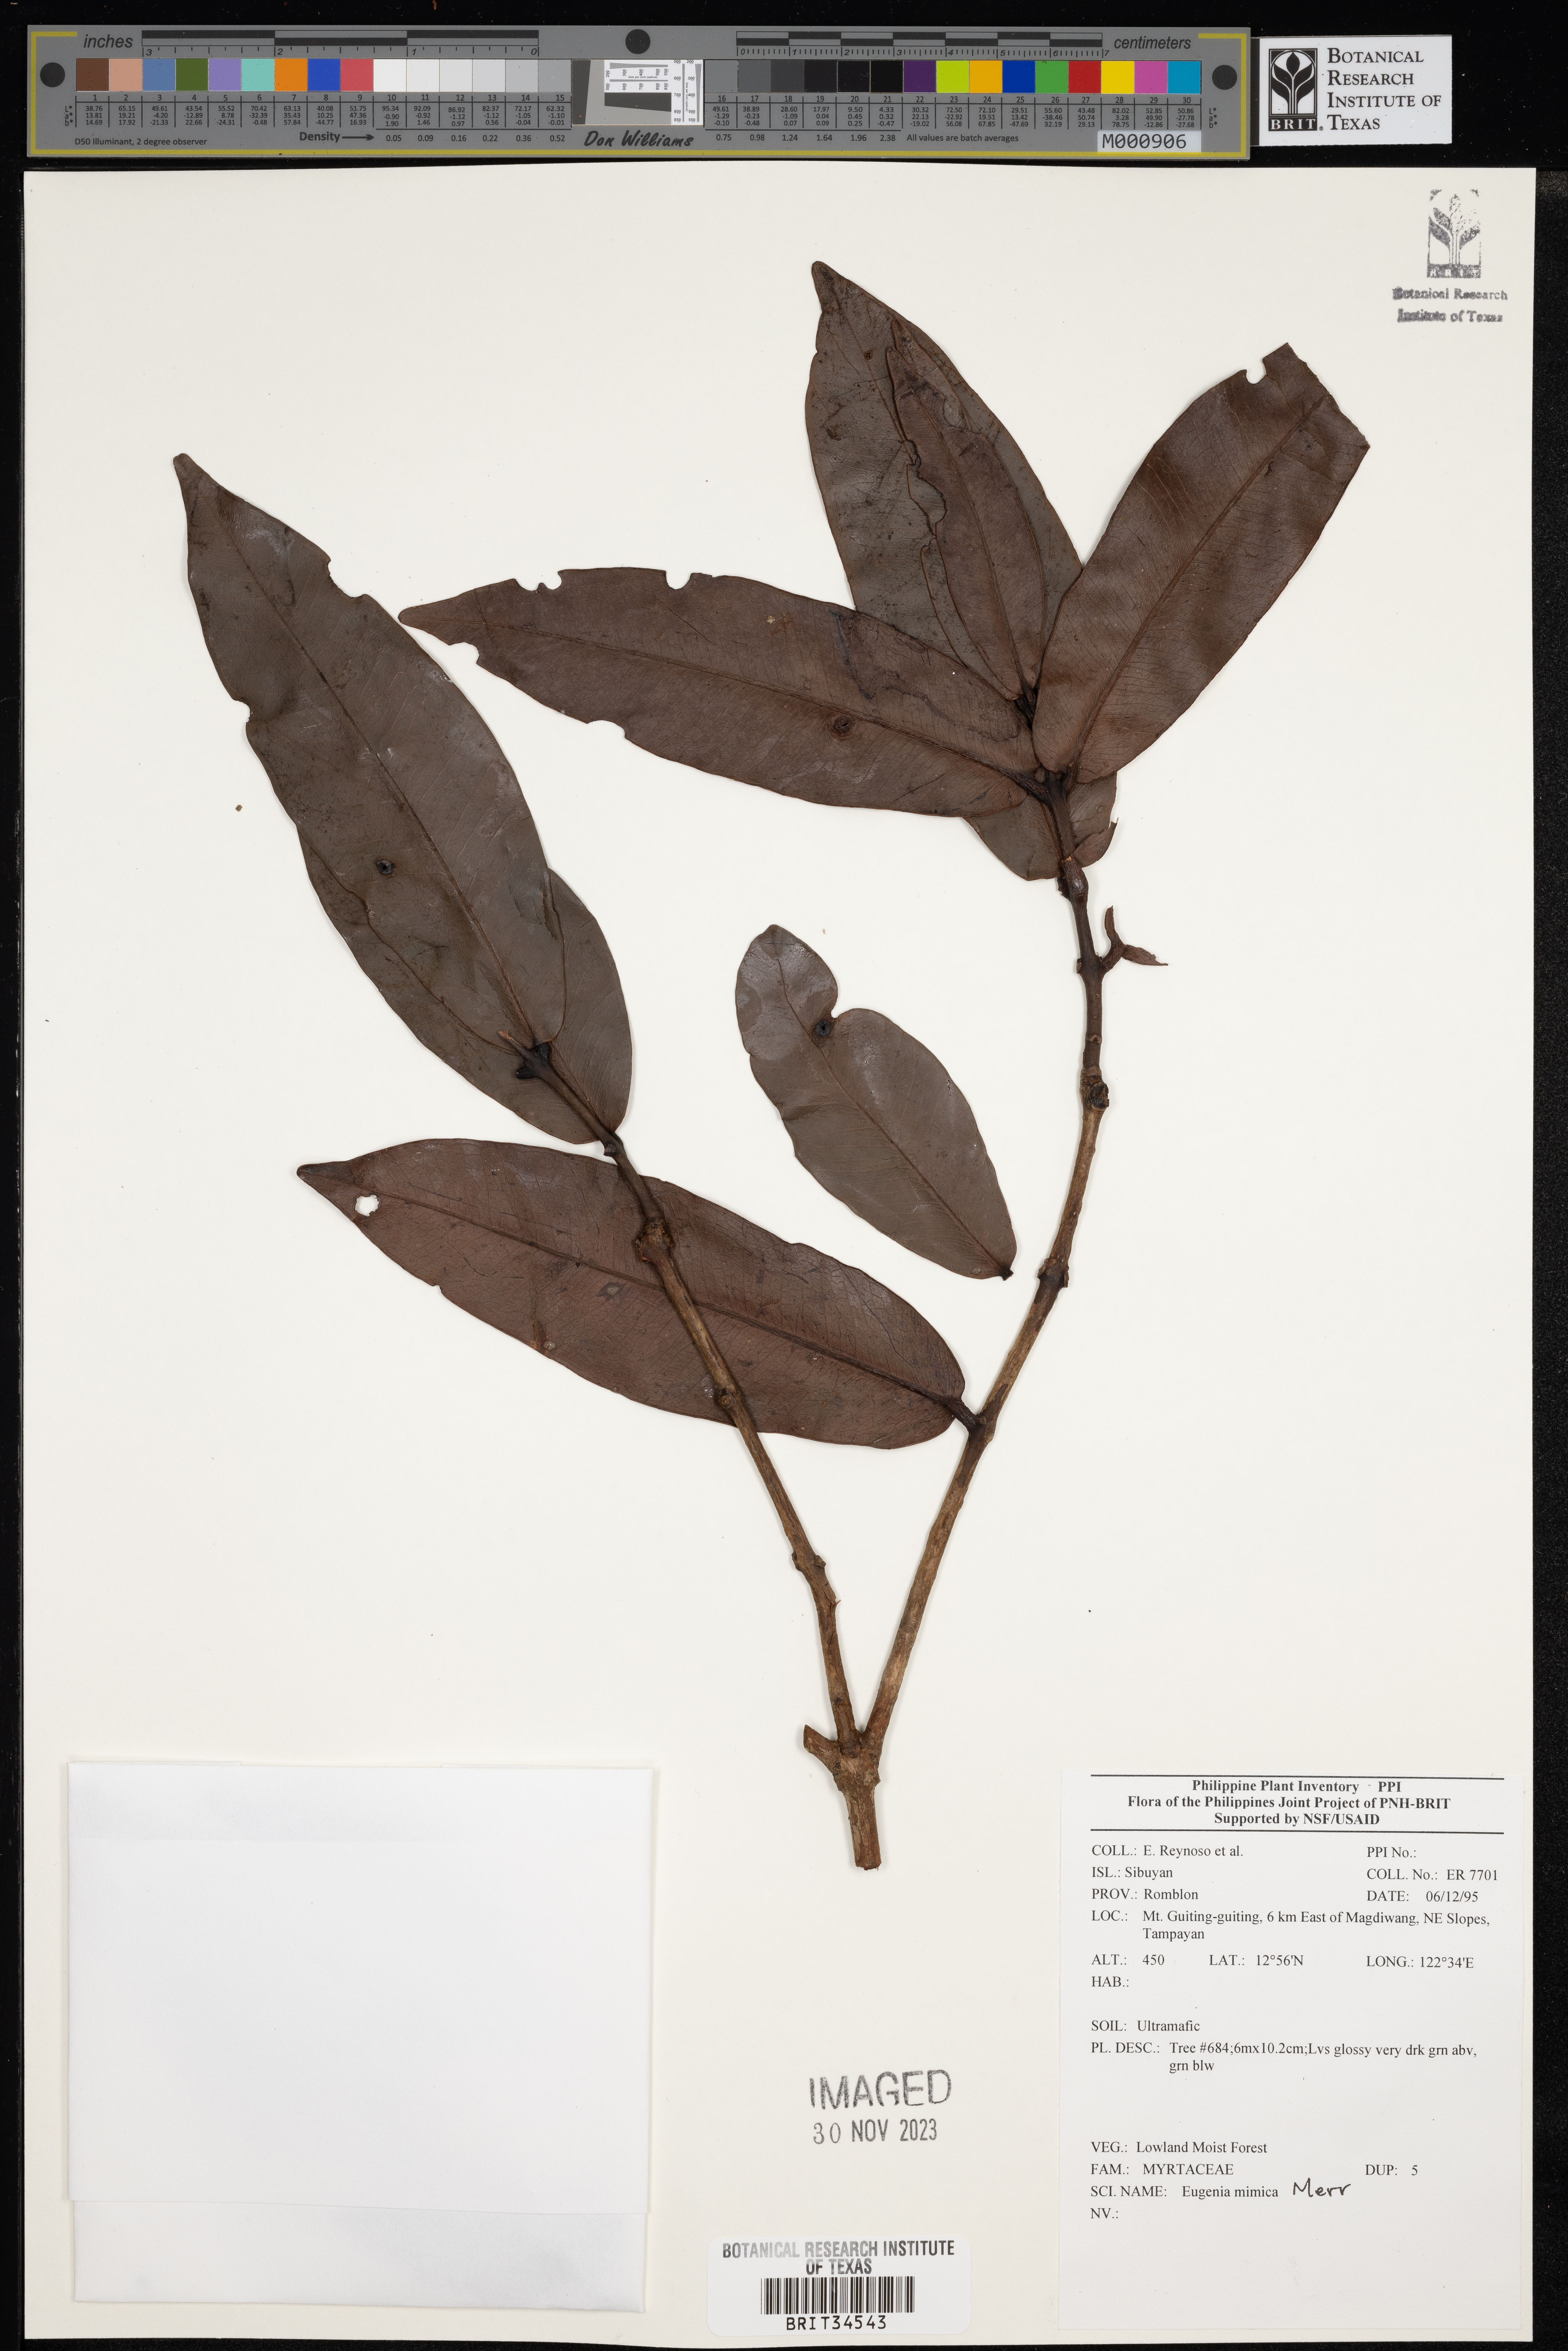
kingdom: Plantae
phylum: Tracheophyta
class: Magnoliopsida
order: Myrtales
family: Myrtaceae
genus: Eugenia
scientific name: Eugenia
